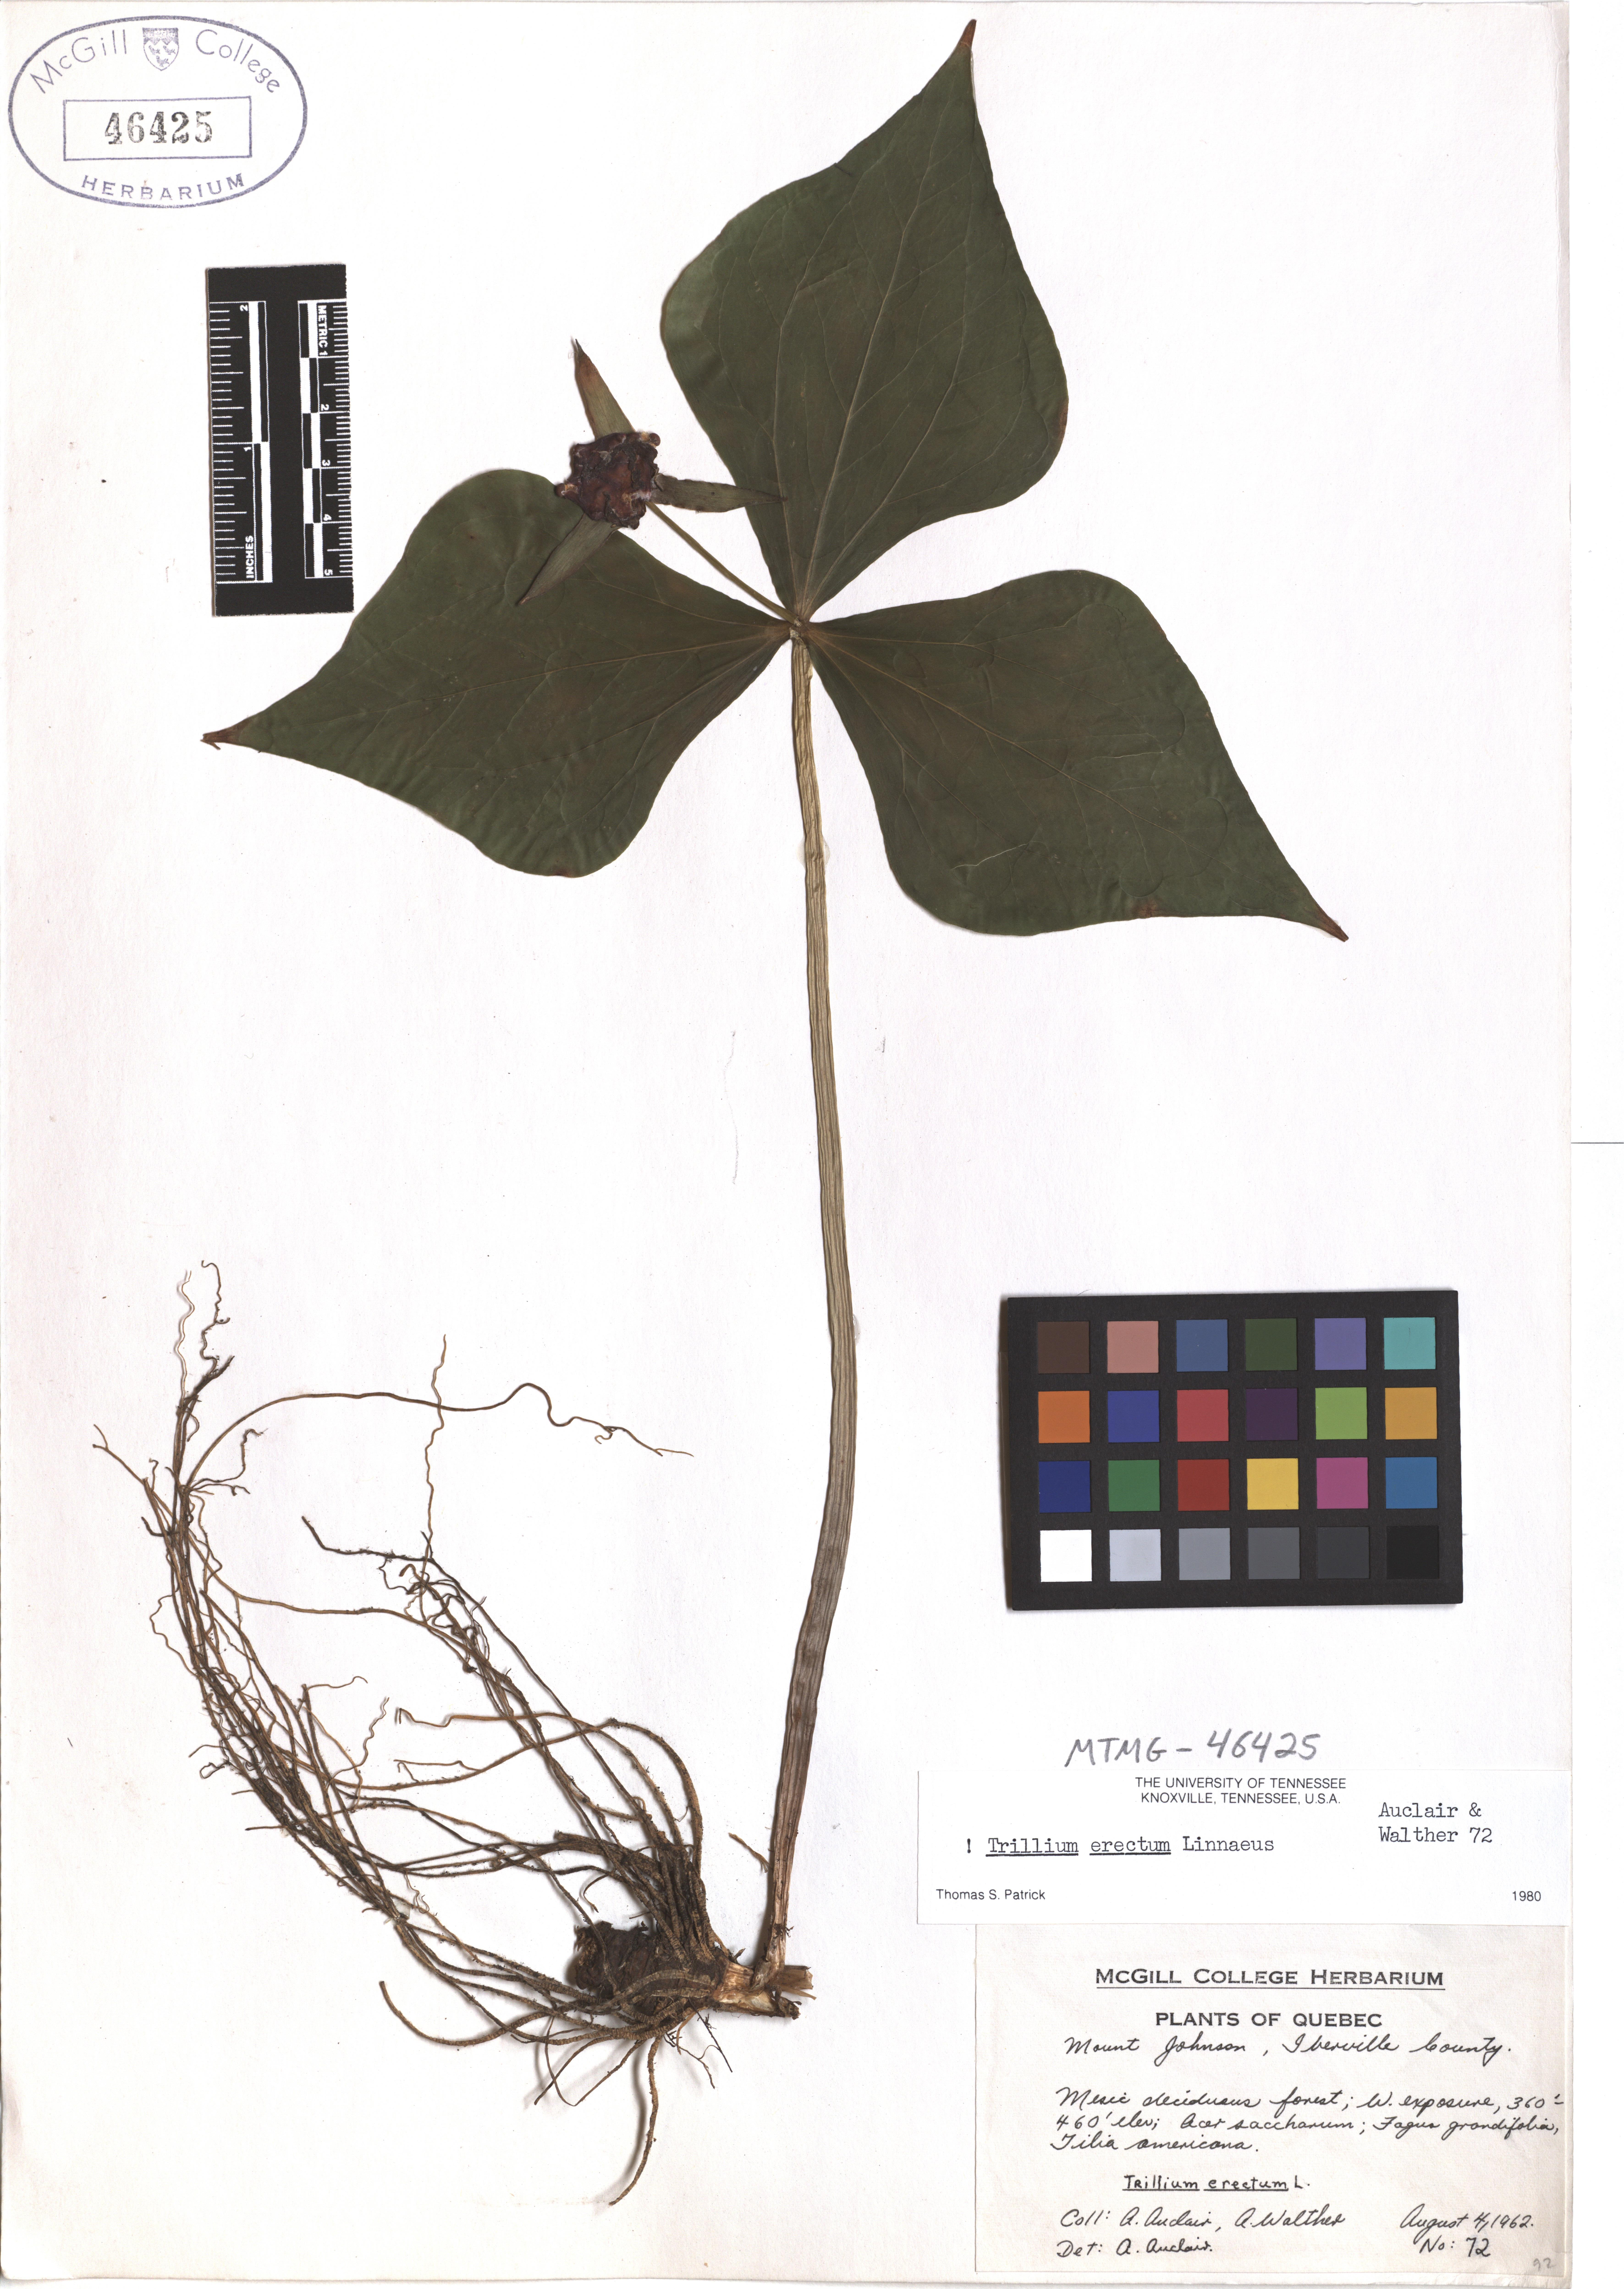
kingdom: Plantae
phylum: Tracheophyta
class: Liliopsida
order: Liliales
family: Melanthiaceae
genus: Trillium
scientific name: Trillium erectum
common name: Purple trillium
